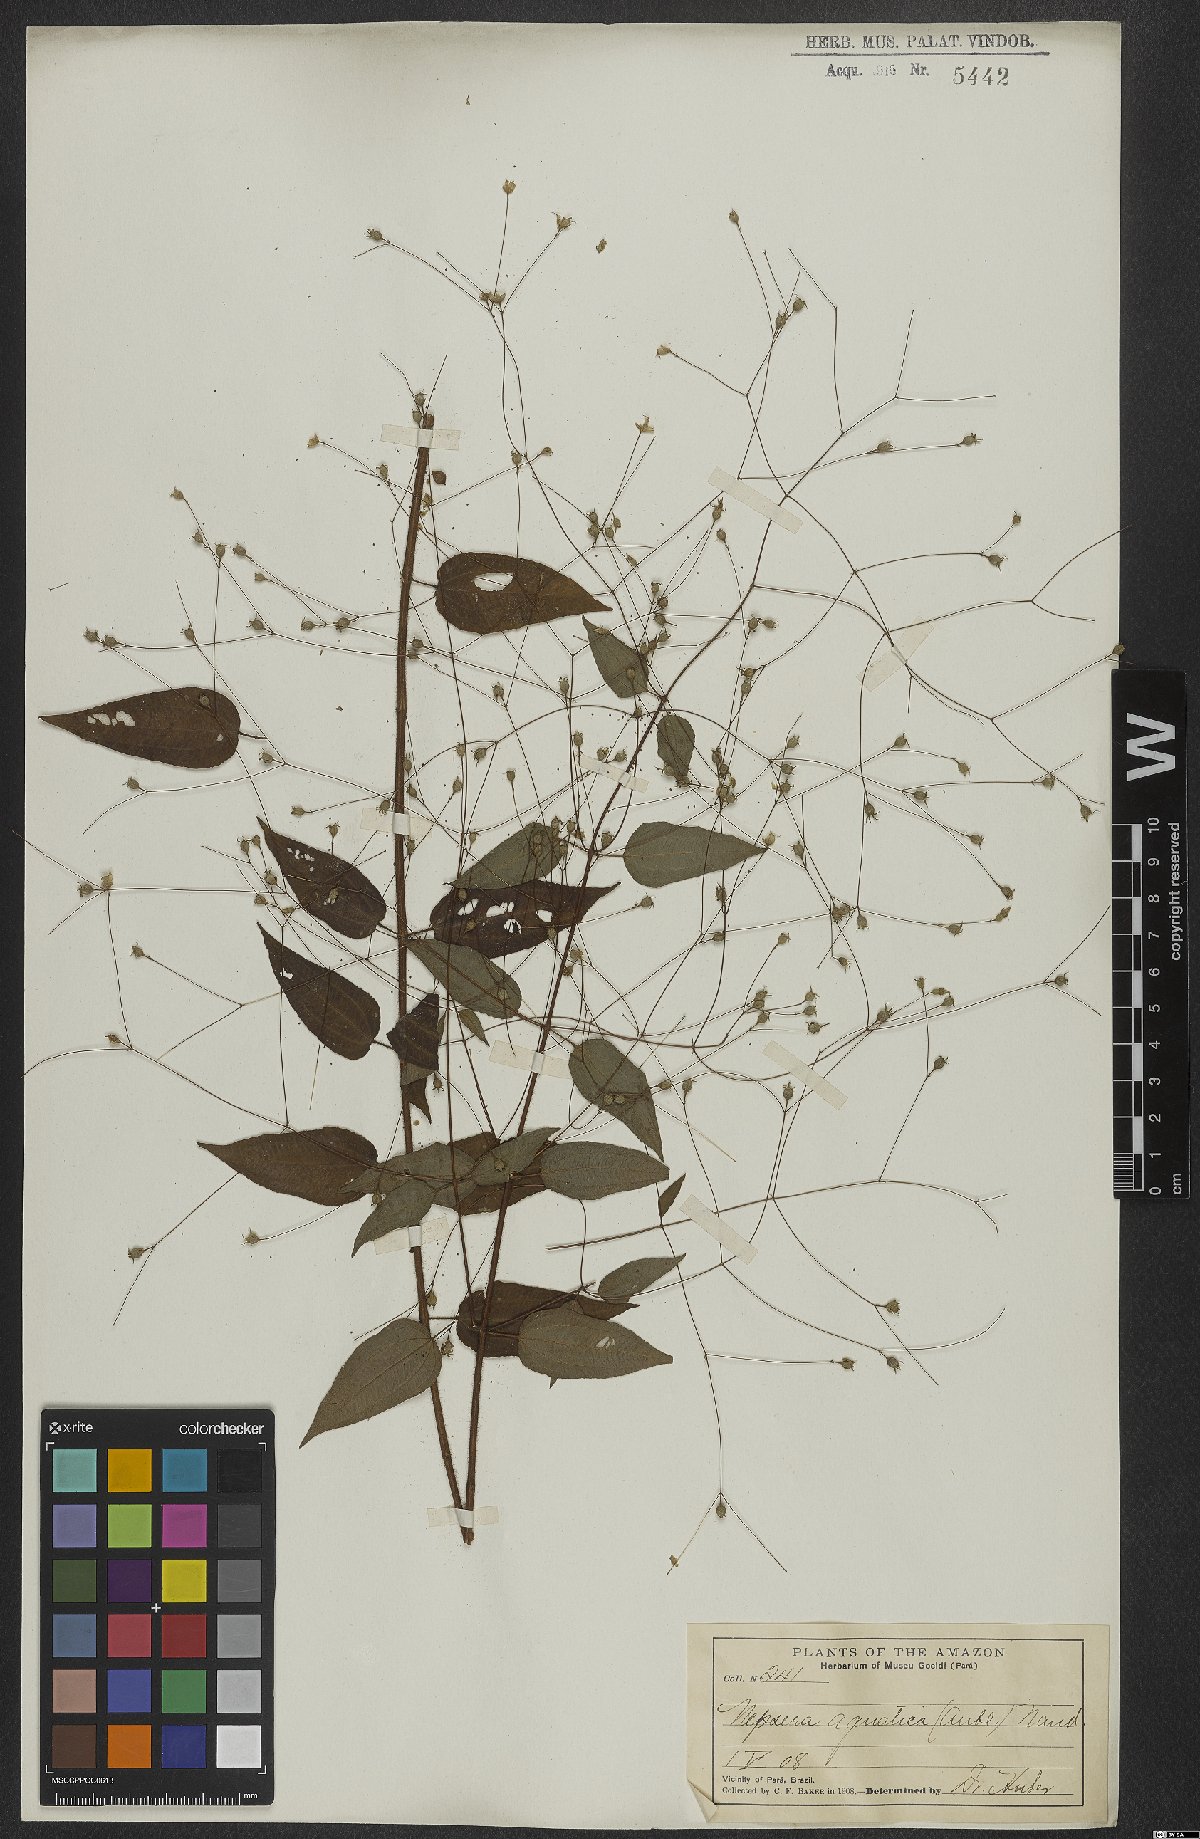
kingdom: Plantae
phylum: Tracheophyta
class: Magnoliopsida
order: Myrtales
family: Melastomataceae
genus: Nepsera
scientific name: Nepsera aquatica
